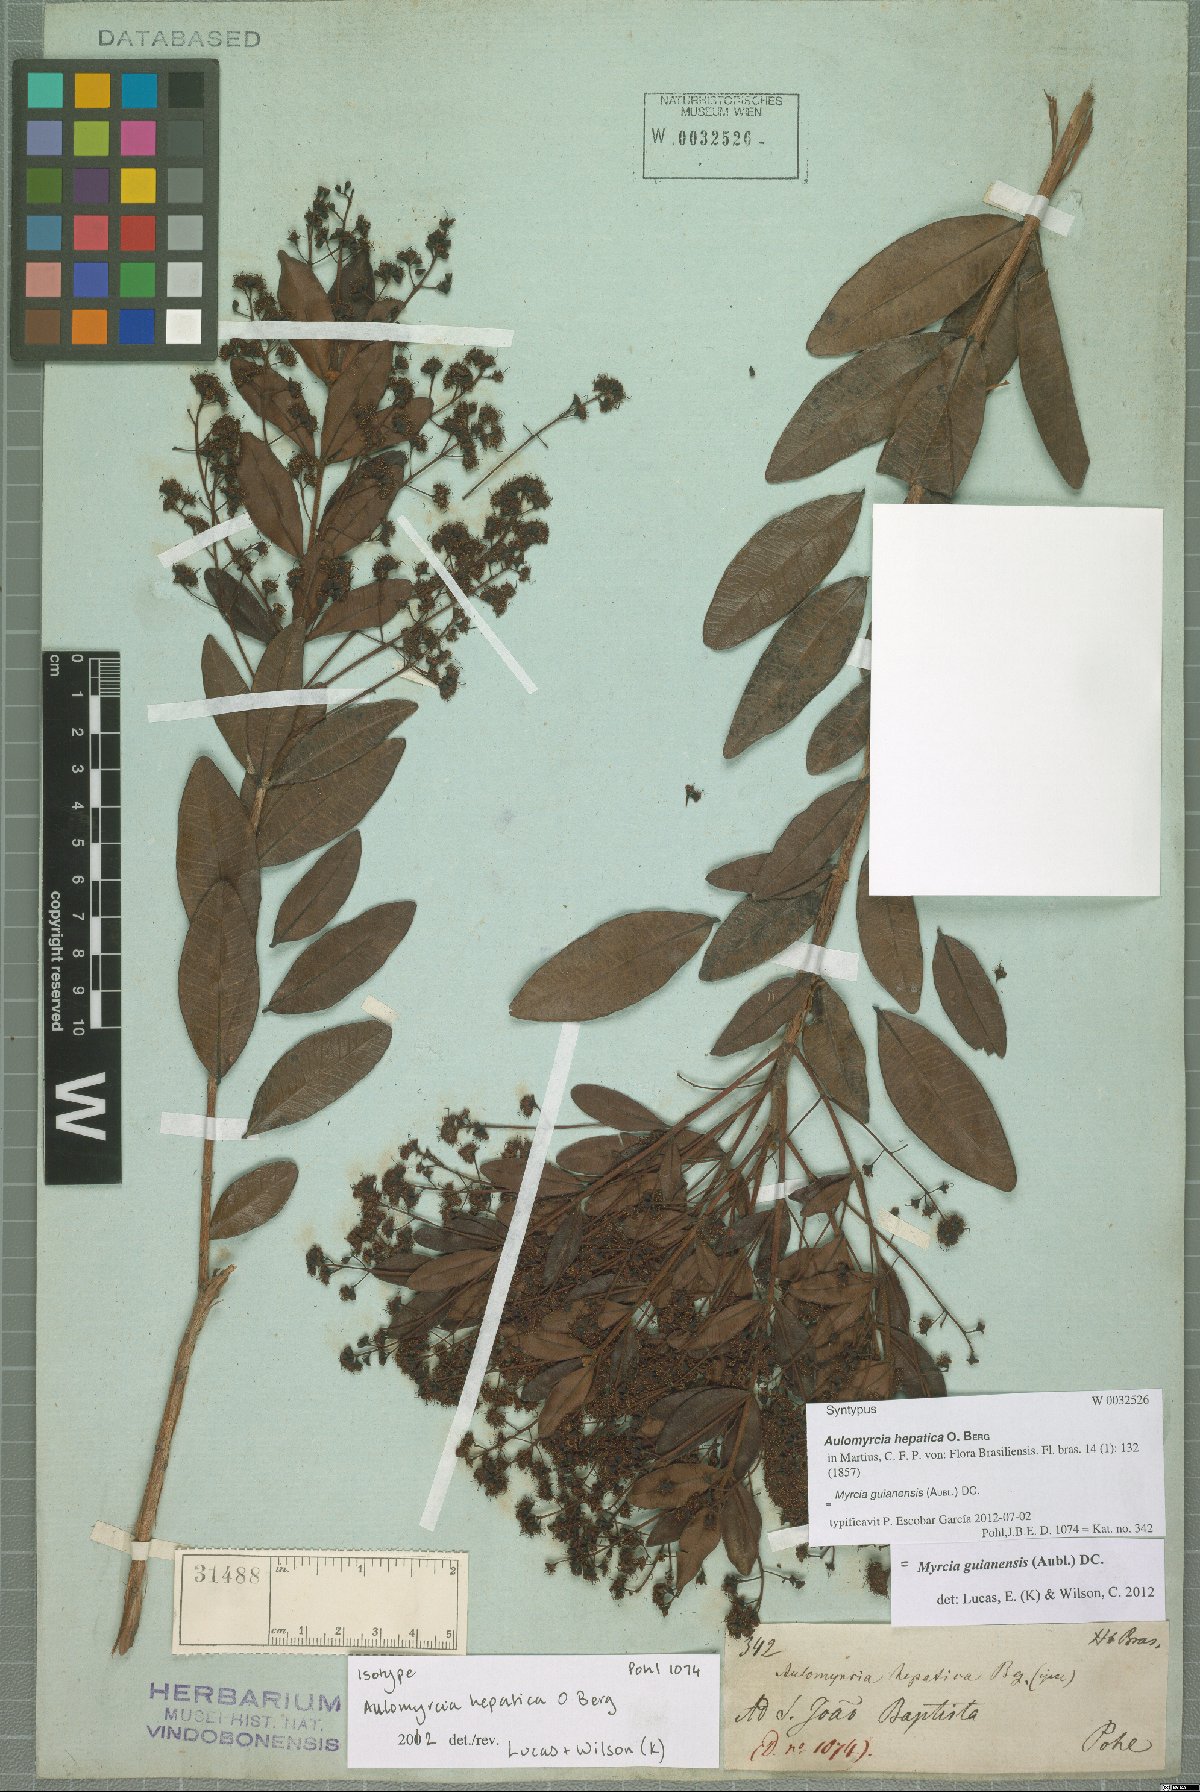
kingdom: Plantae
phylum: Tracheophyta
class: Magnoliopsida
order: Myrtales
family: Myrtaceae
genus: Myrcia
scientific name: Myrcia guianensis
